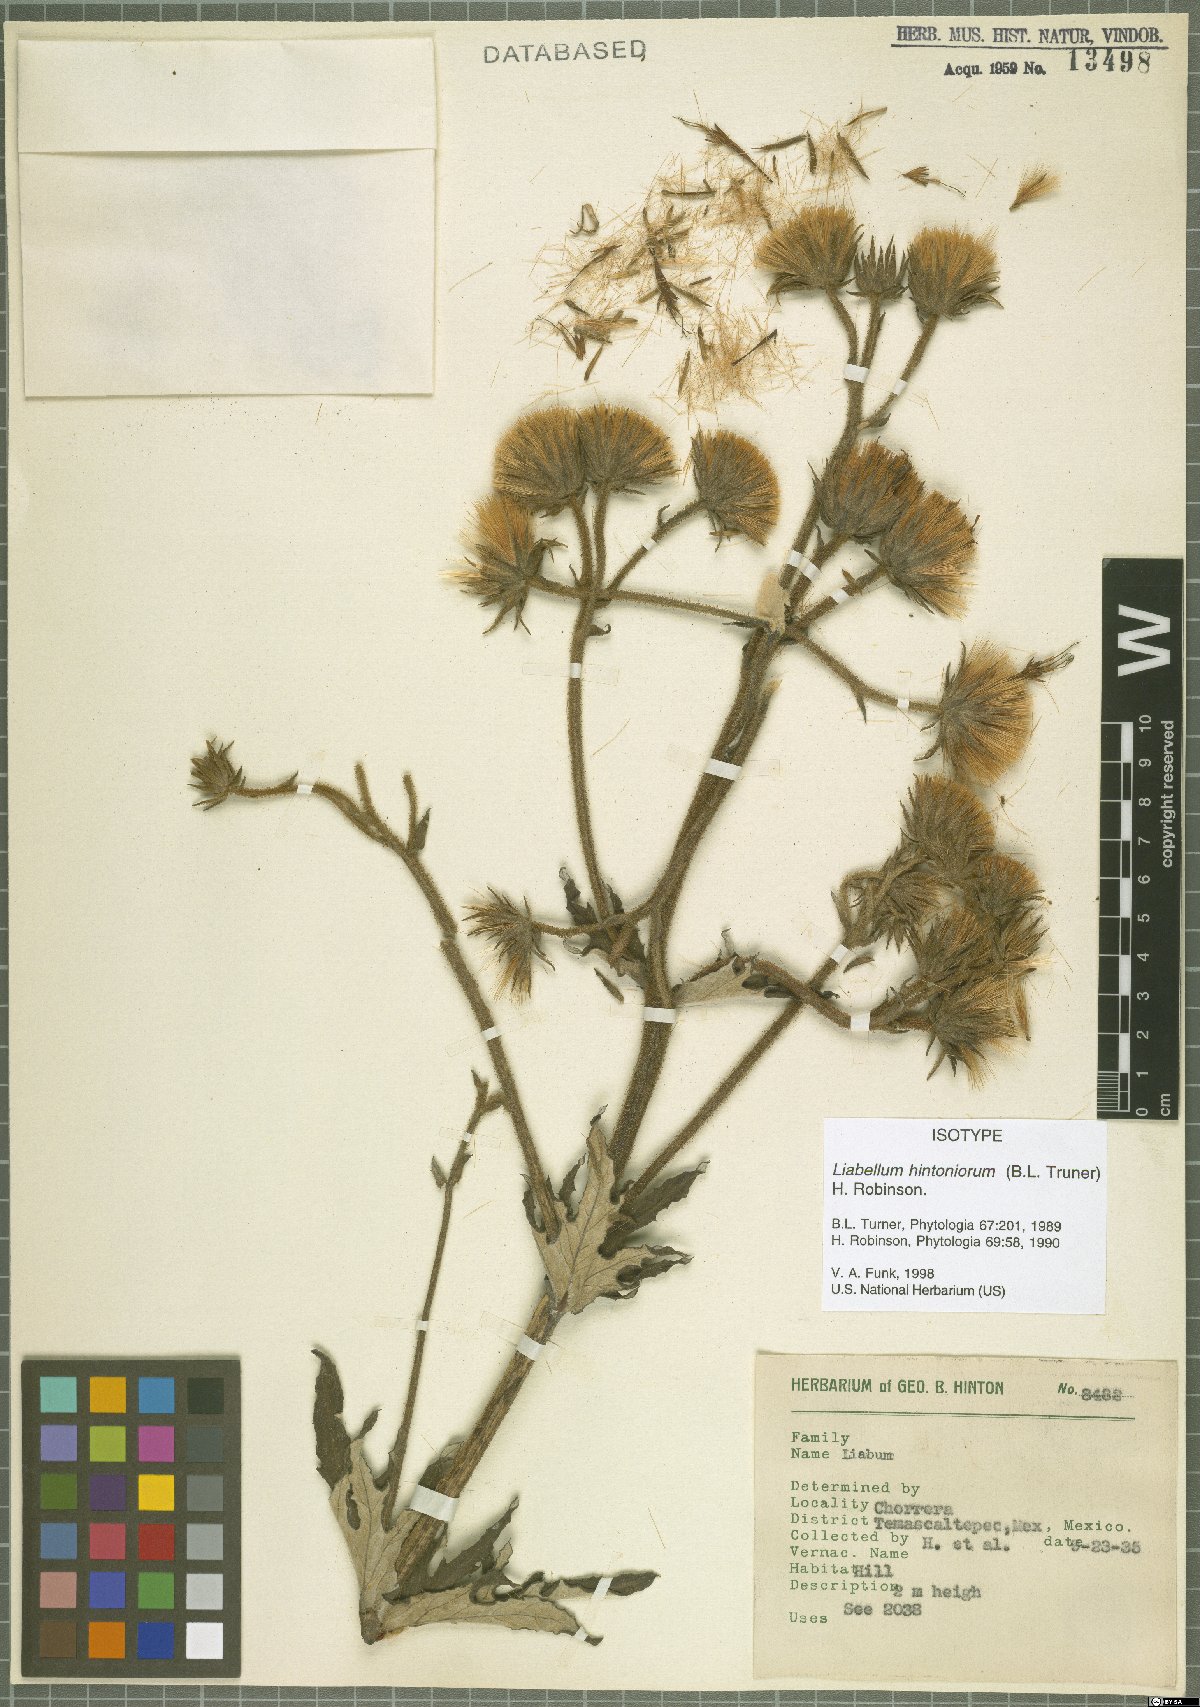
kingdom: Plantae
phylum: Tracheophyta
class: Magnoliopsida
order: Asterales
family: Asteraceae
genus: Sinclairia
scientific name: Sinclairia hintoniorum
